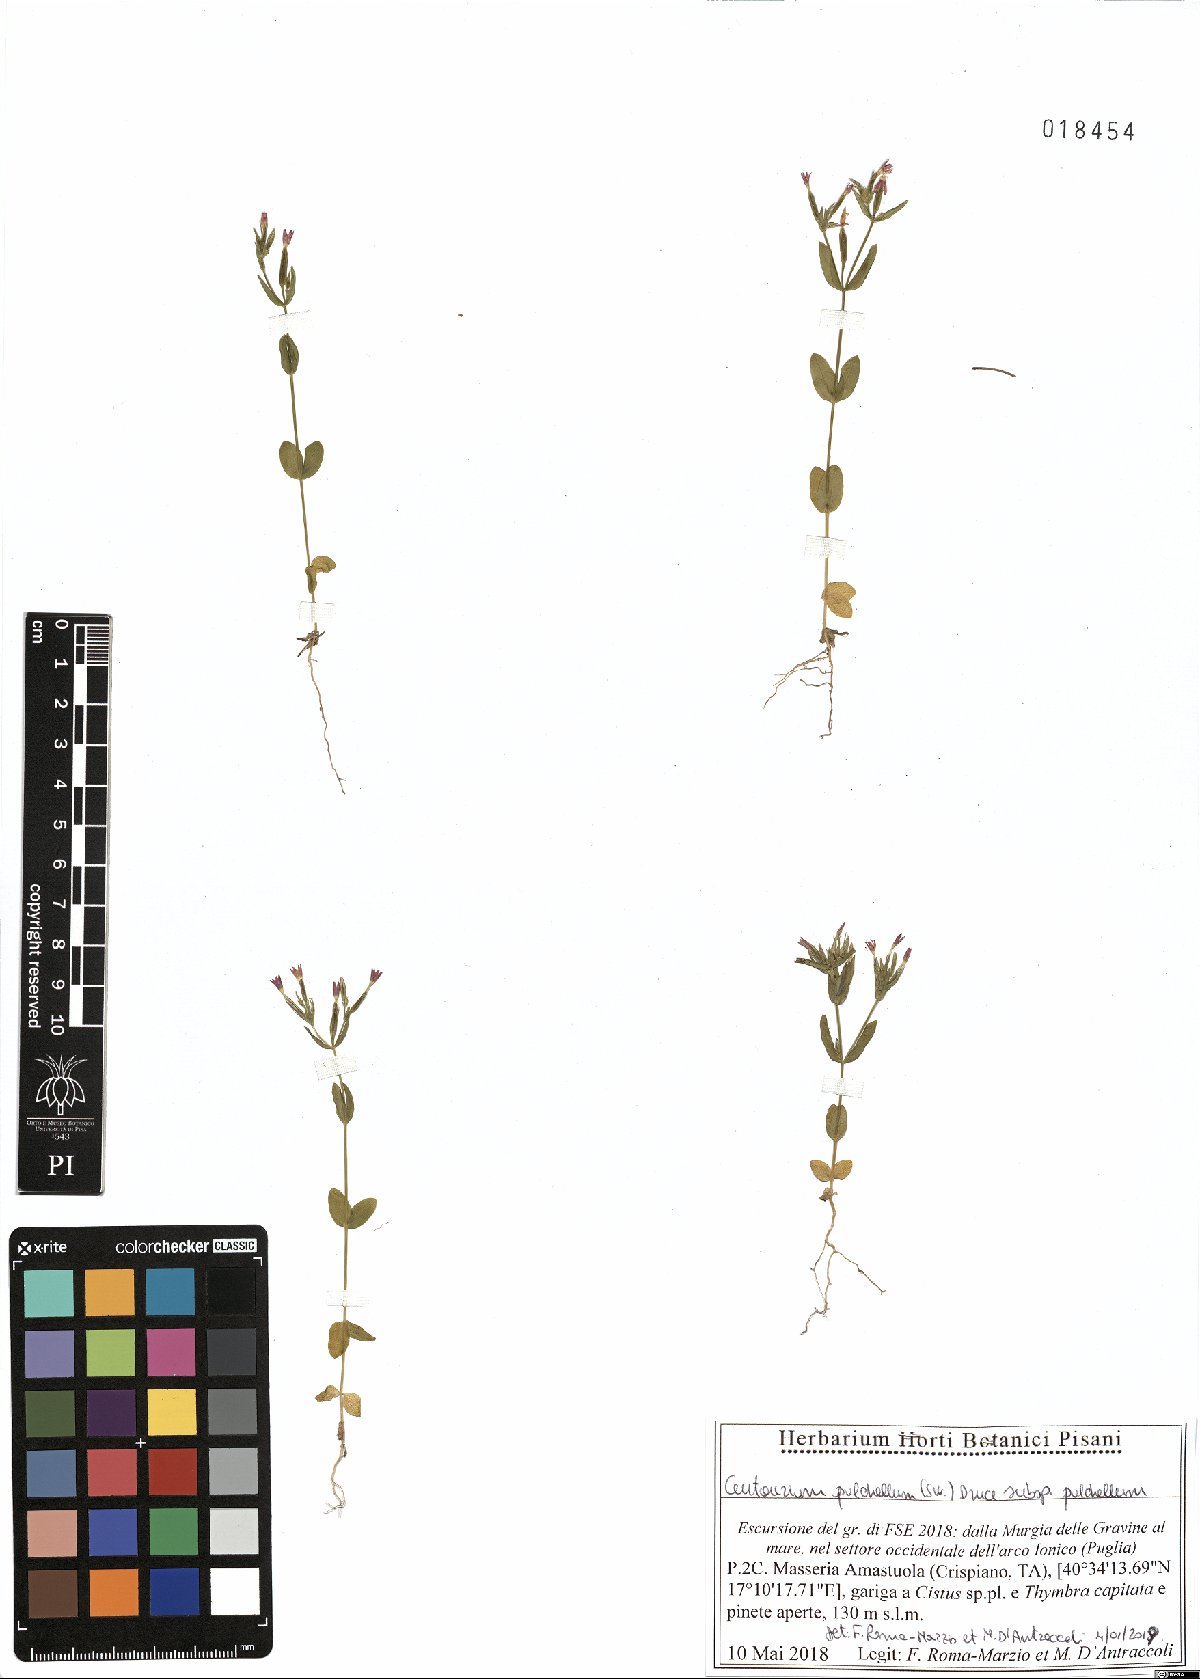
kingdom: Plantae
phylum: Tracheophyta
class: Magnoliopsida
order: Gentianales
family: Gentianaceae
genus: Centaurium
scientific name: Centaurium pulchellum
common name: Lesser centaury
